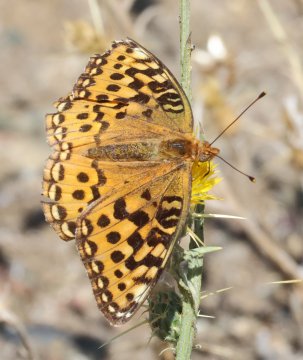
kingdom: Animalia
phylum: Arthropoda
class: Insecta
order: Lepidoptera
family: Nymphalidae
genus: Speyeria
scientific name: Speyeria mormonia
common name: Mormon Fritillary
